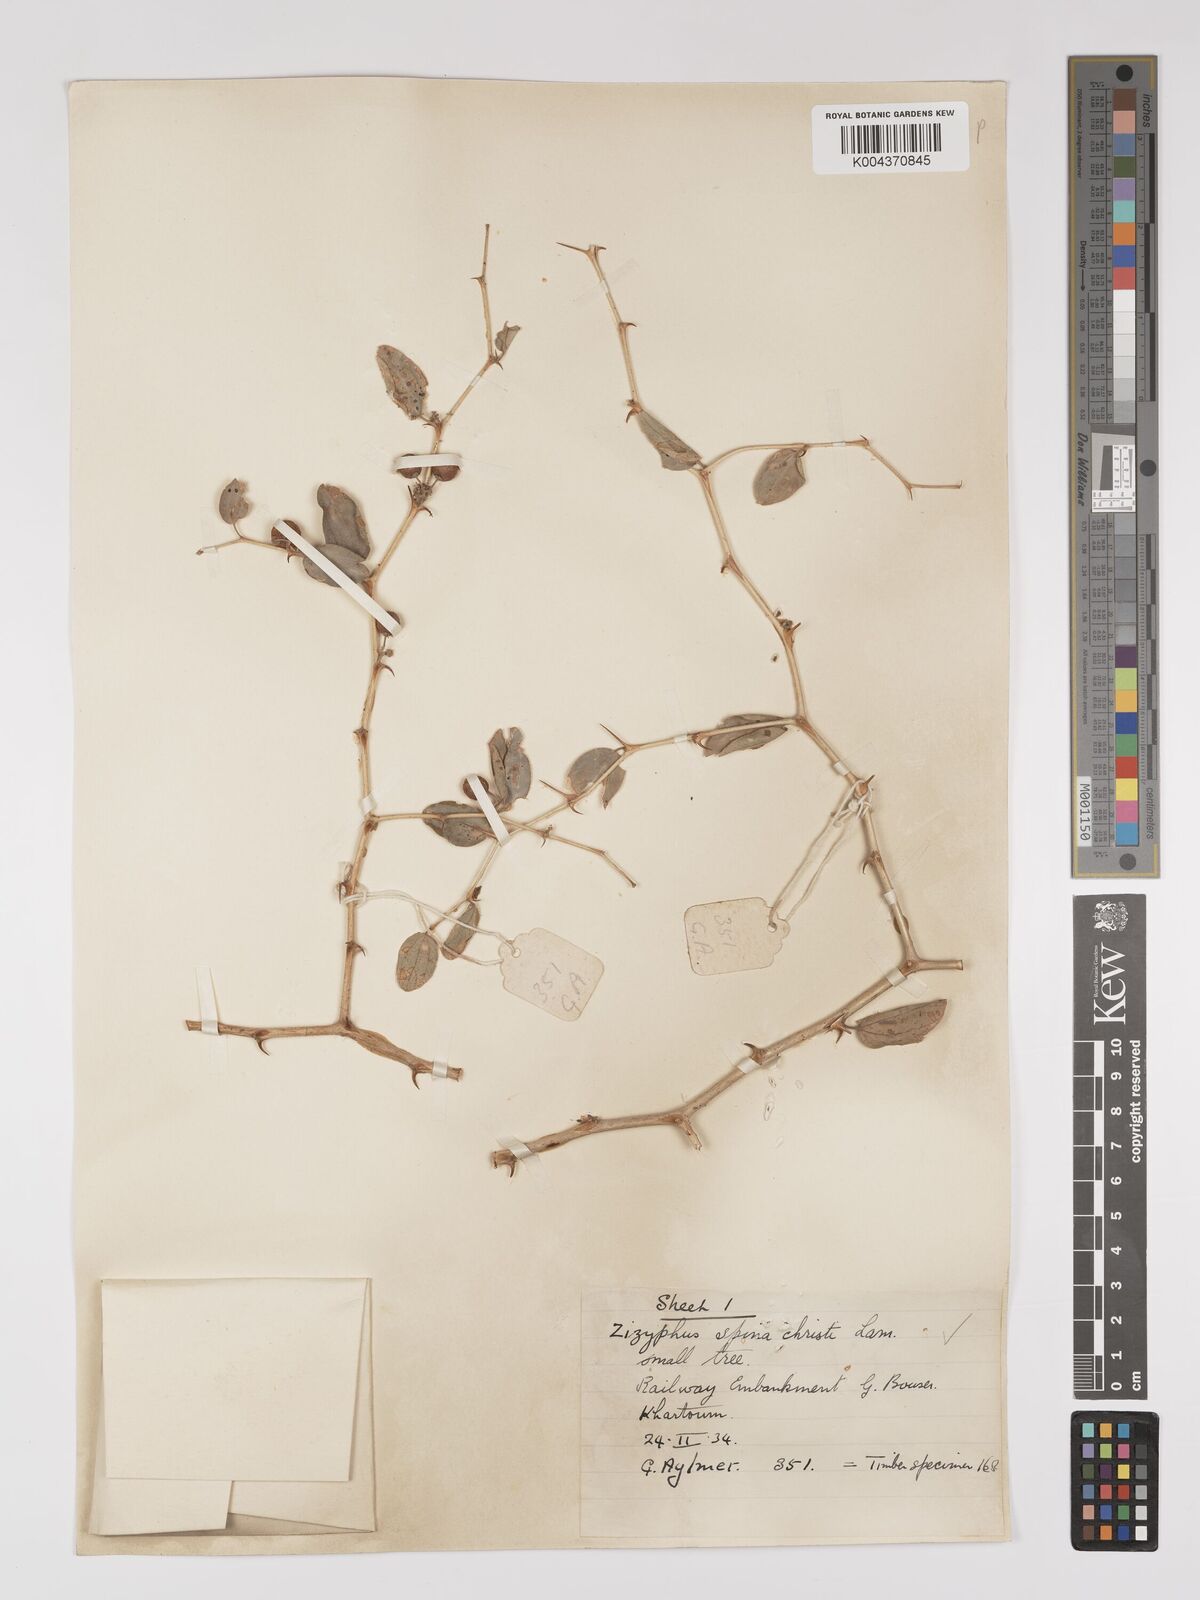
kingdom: Plantae
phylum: Tracheophyta
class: Magnoliopsida
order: Rosales
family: Rhamnaceae
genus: Ziziphus
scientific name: Ziziphus spina-christi
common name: Syrian christ-thorn
